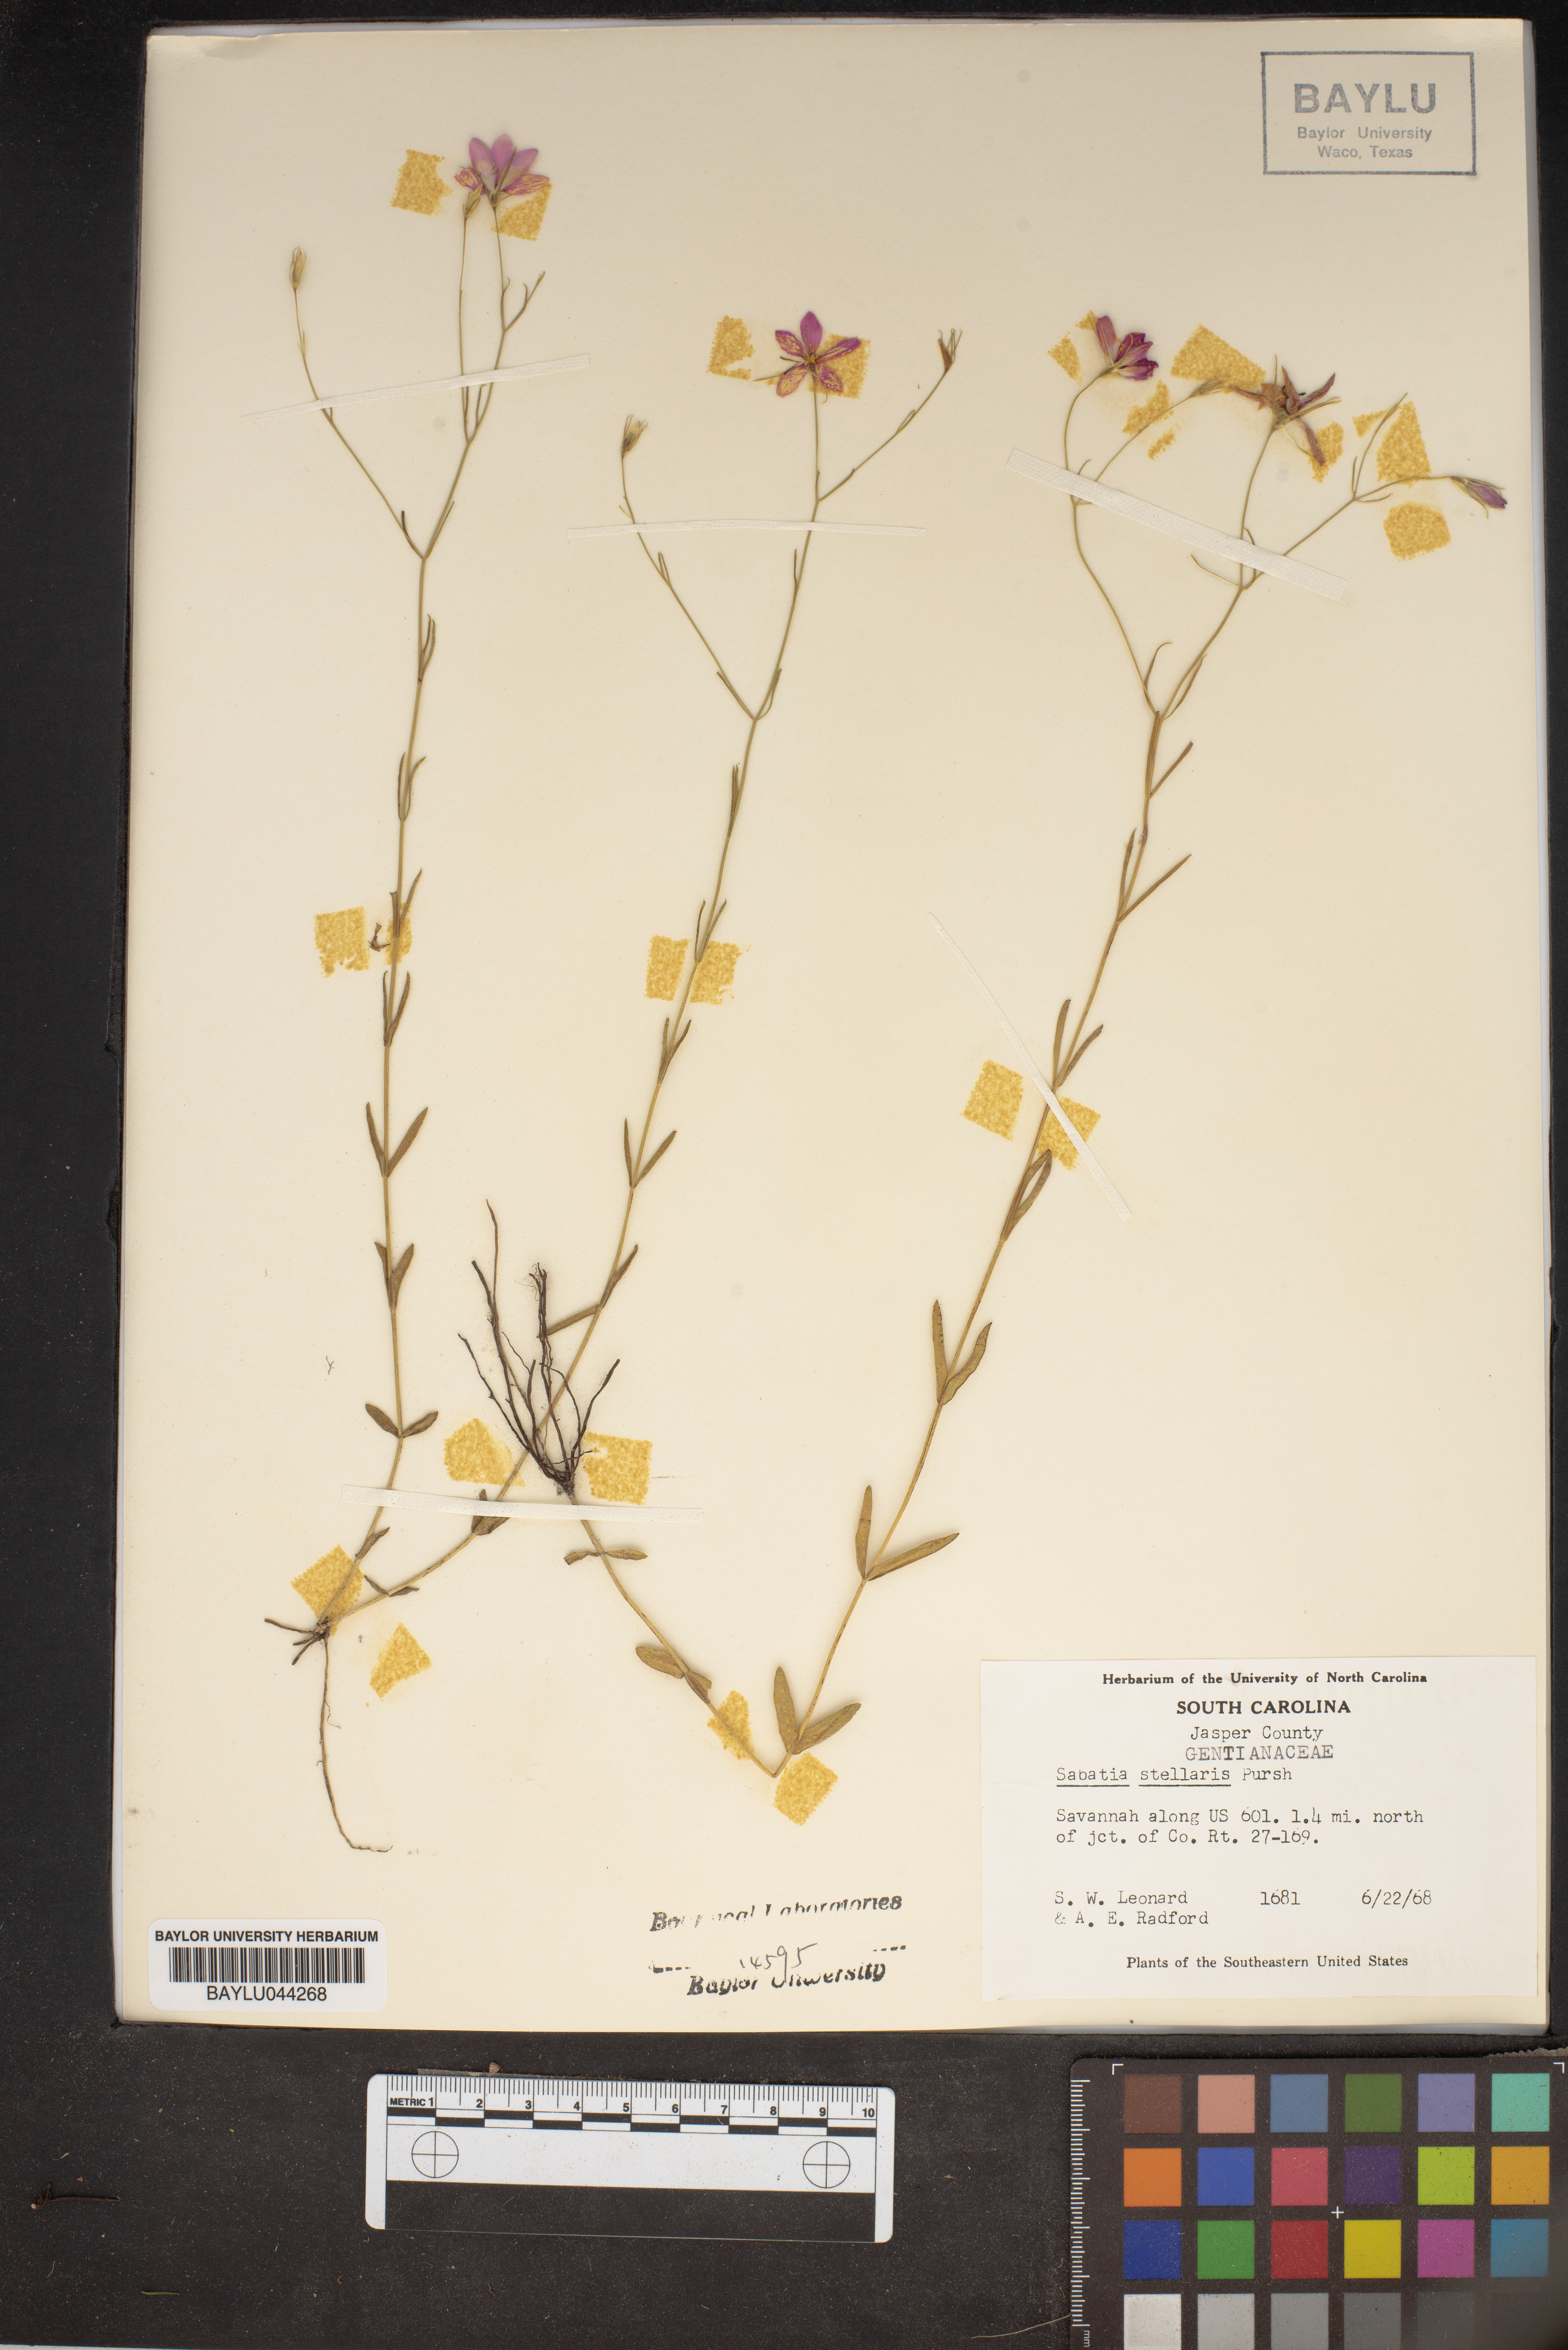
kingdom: Plantae
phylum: Tracheophyta
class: Magnoliopsida
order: Gentianales
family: Gentianaceae
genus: Sabatia
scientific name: Sabatia stellaris
